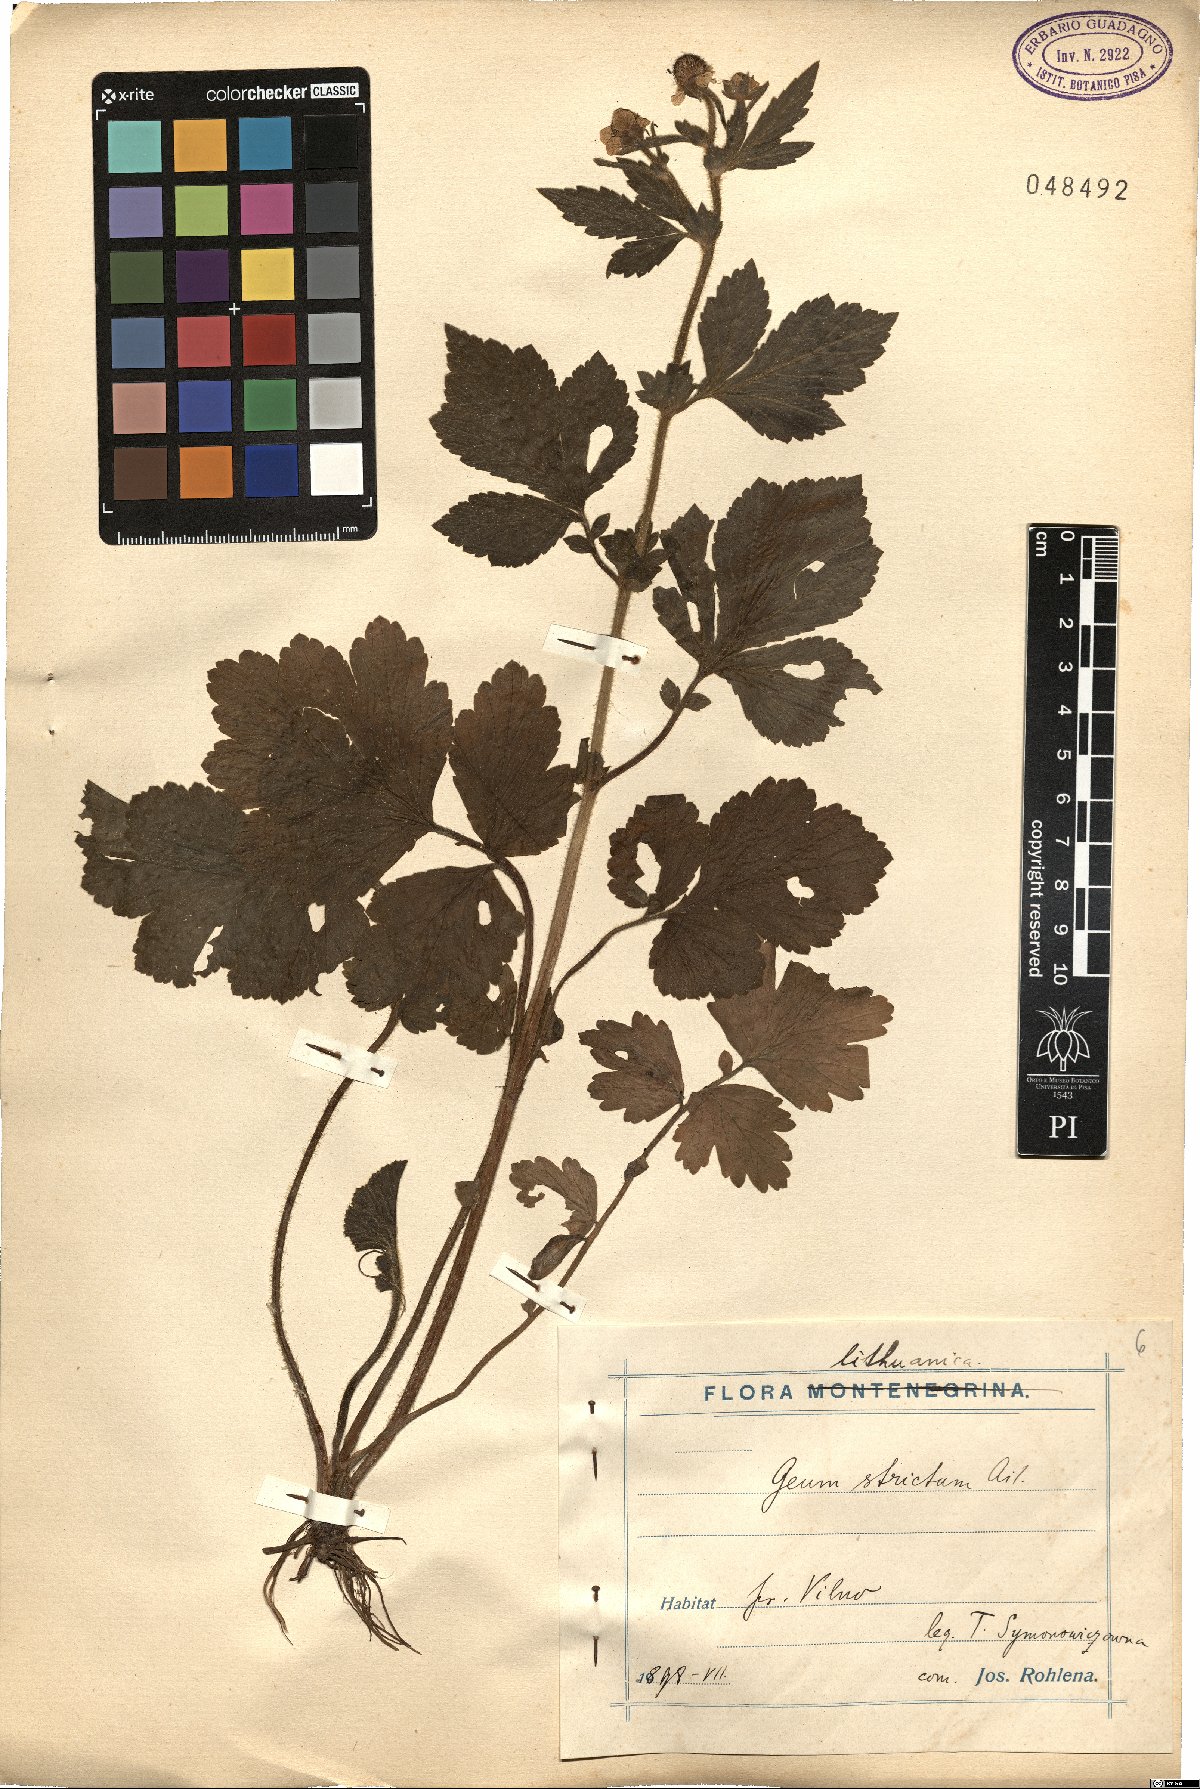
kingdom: Plantae
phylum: Tracheophyta
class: Magnoliopsida
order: Rosales
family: Rosaceae
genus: Geum
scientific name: Geum aleppicum
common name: Yellow avens
